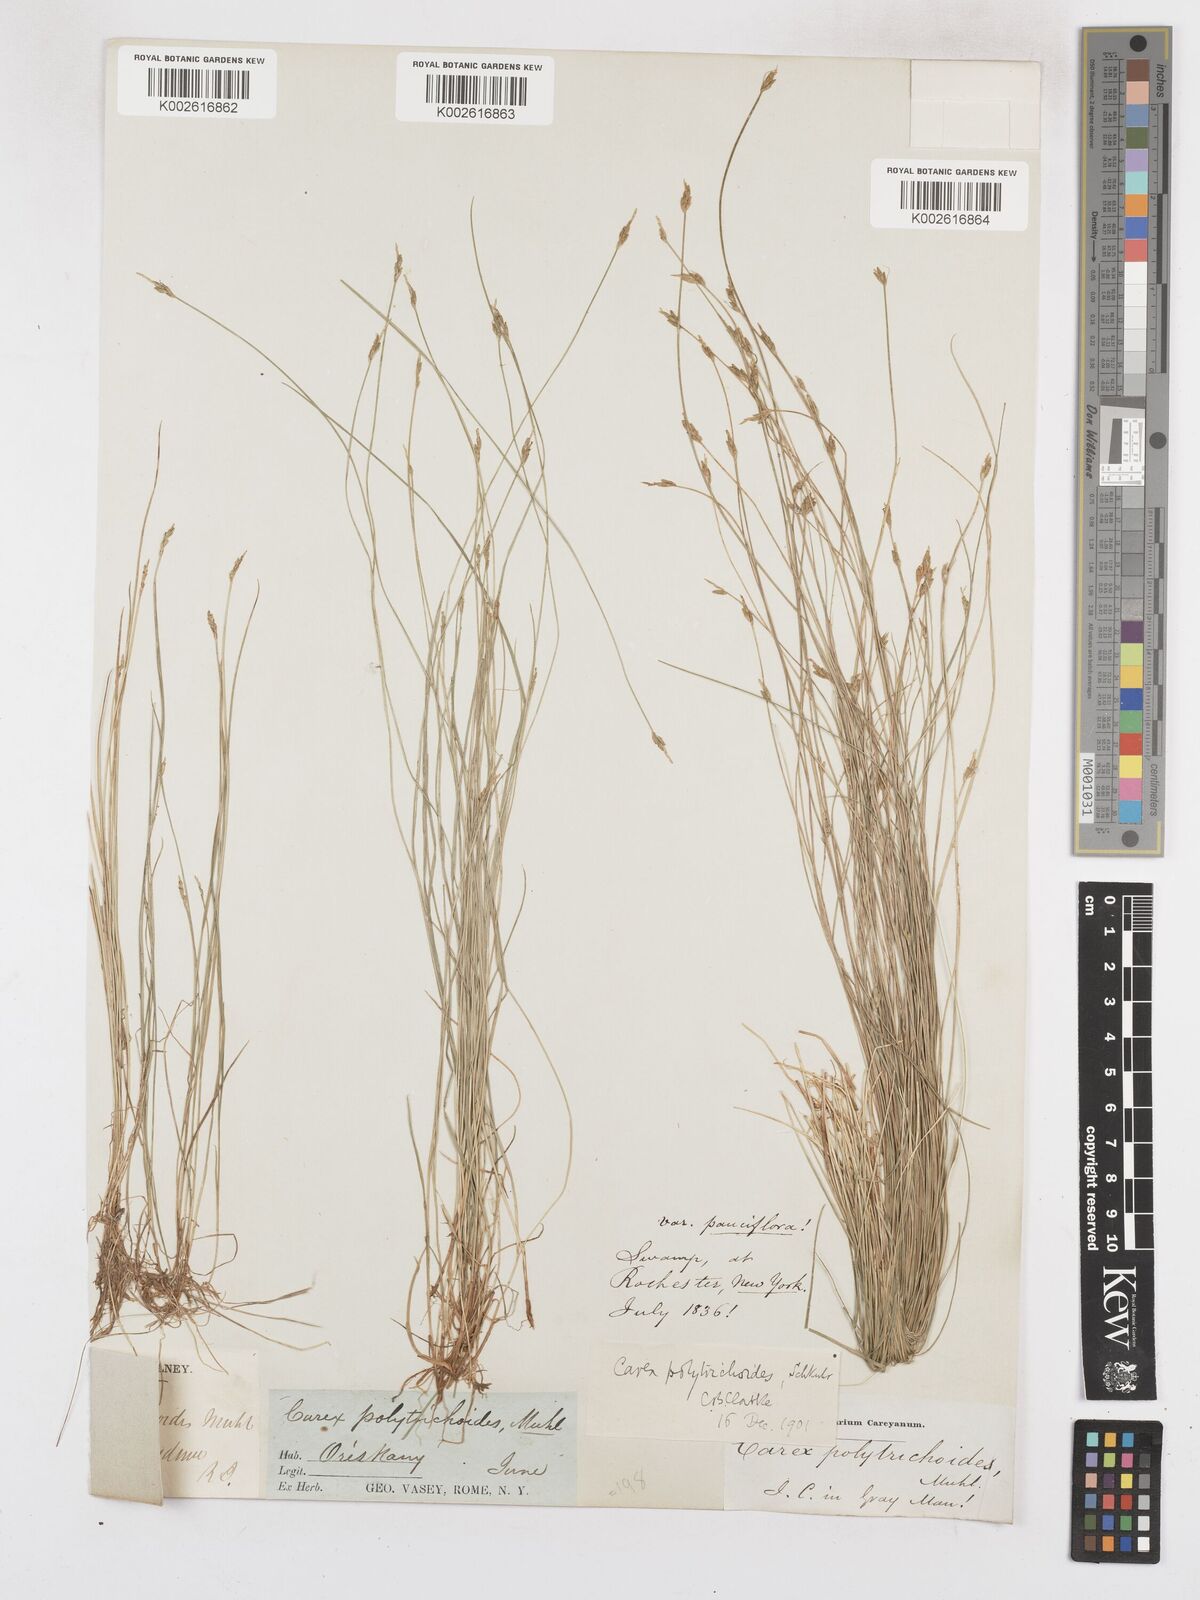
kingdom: Plantae
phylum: Tracheophyta
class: Liliopsida
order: Poales
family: Cyperaceae
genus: Carex
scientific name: Carex leptalea
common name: Bristly-stalked sedge
